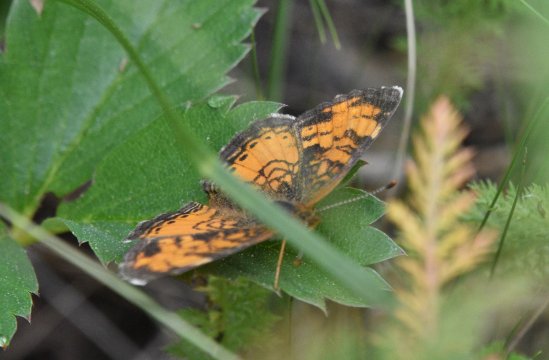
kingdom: Animalia
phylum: Arthropoda
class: Insecta
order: Lepidoptera
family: Nymphalidae
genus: Phyciodes
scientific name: Phyciodes tharos
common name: Northern Crescent
